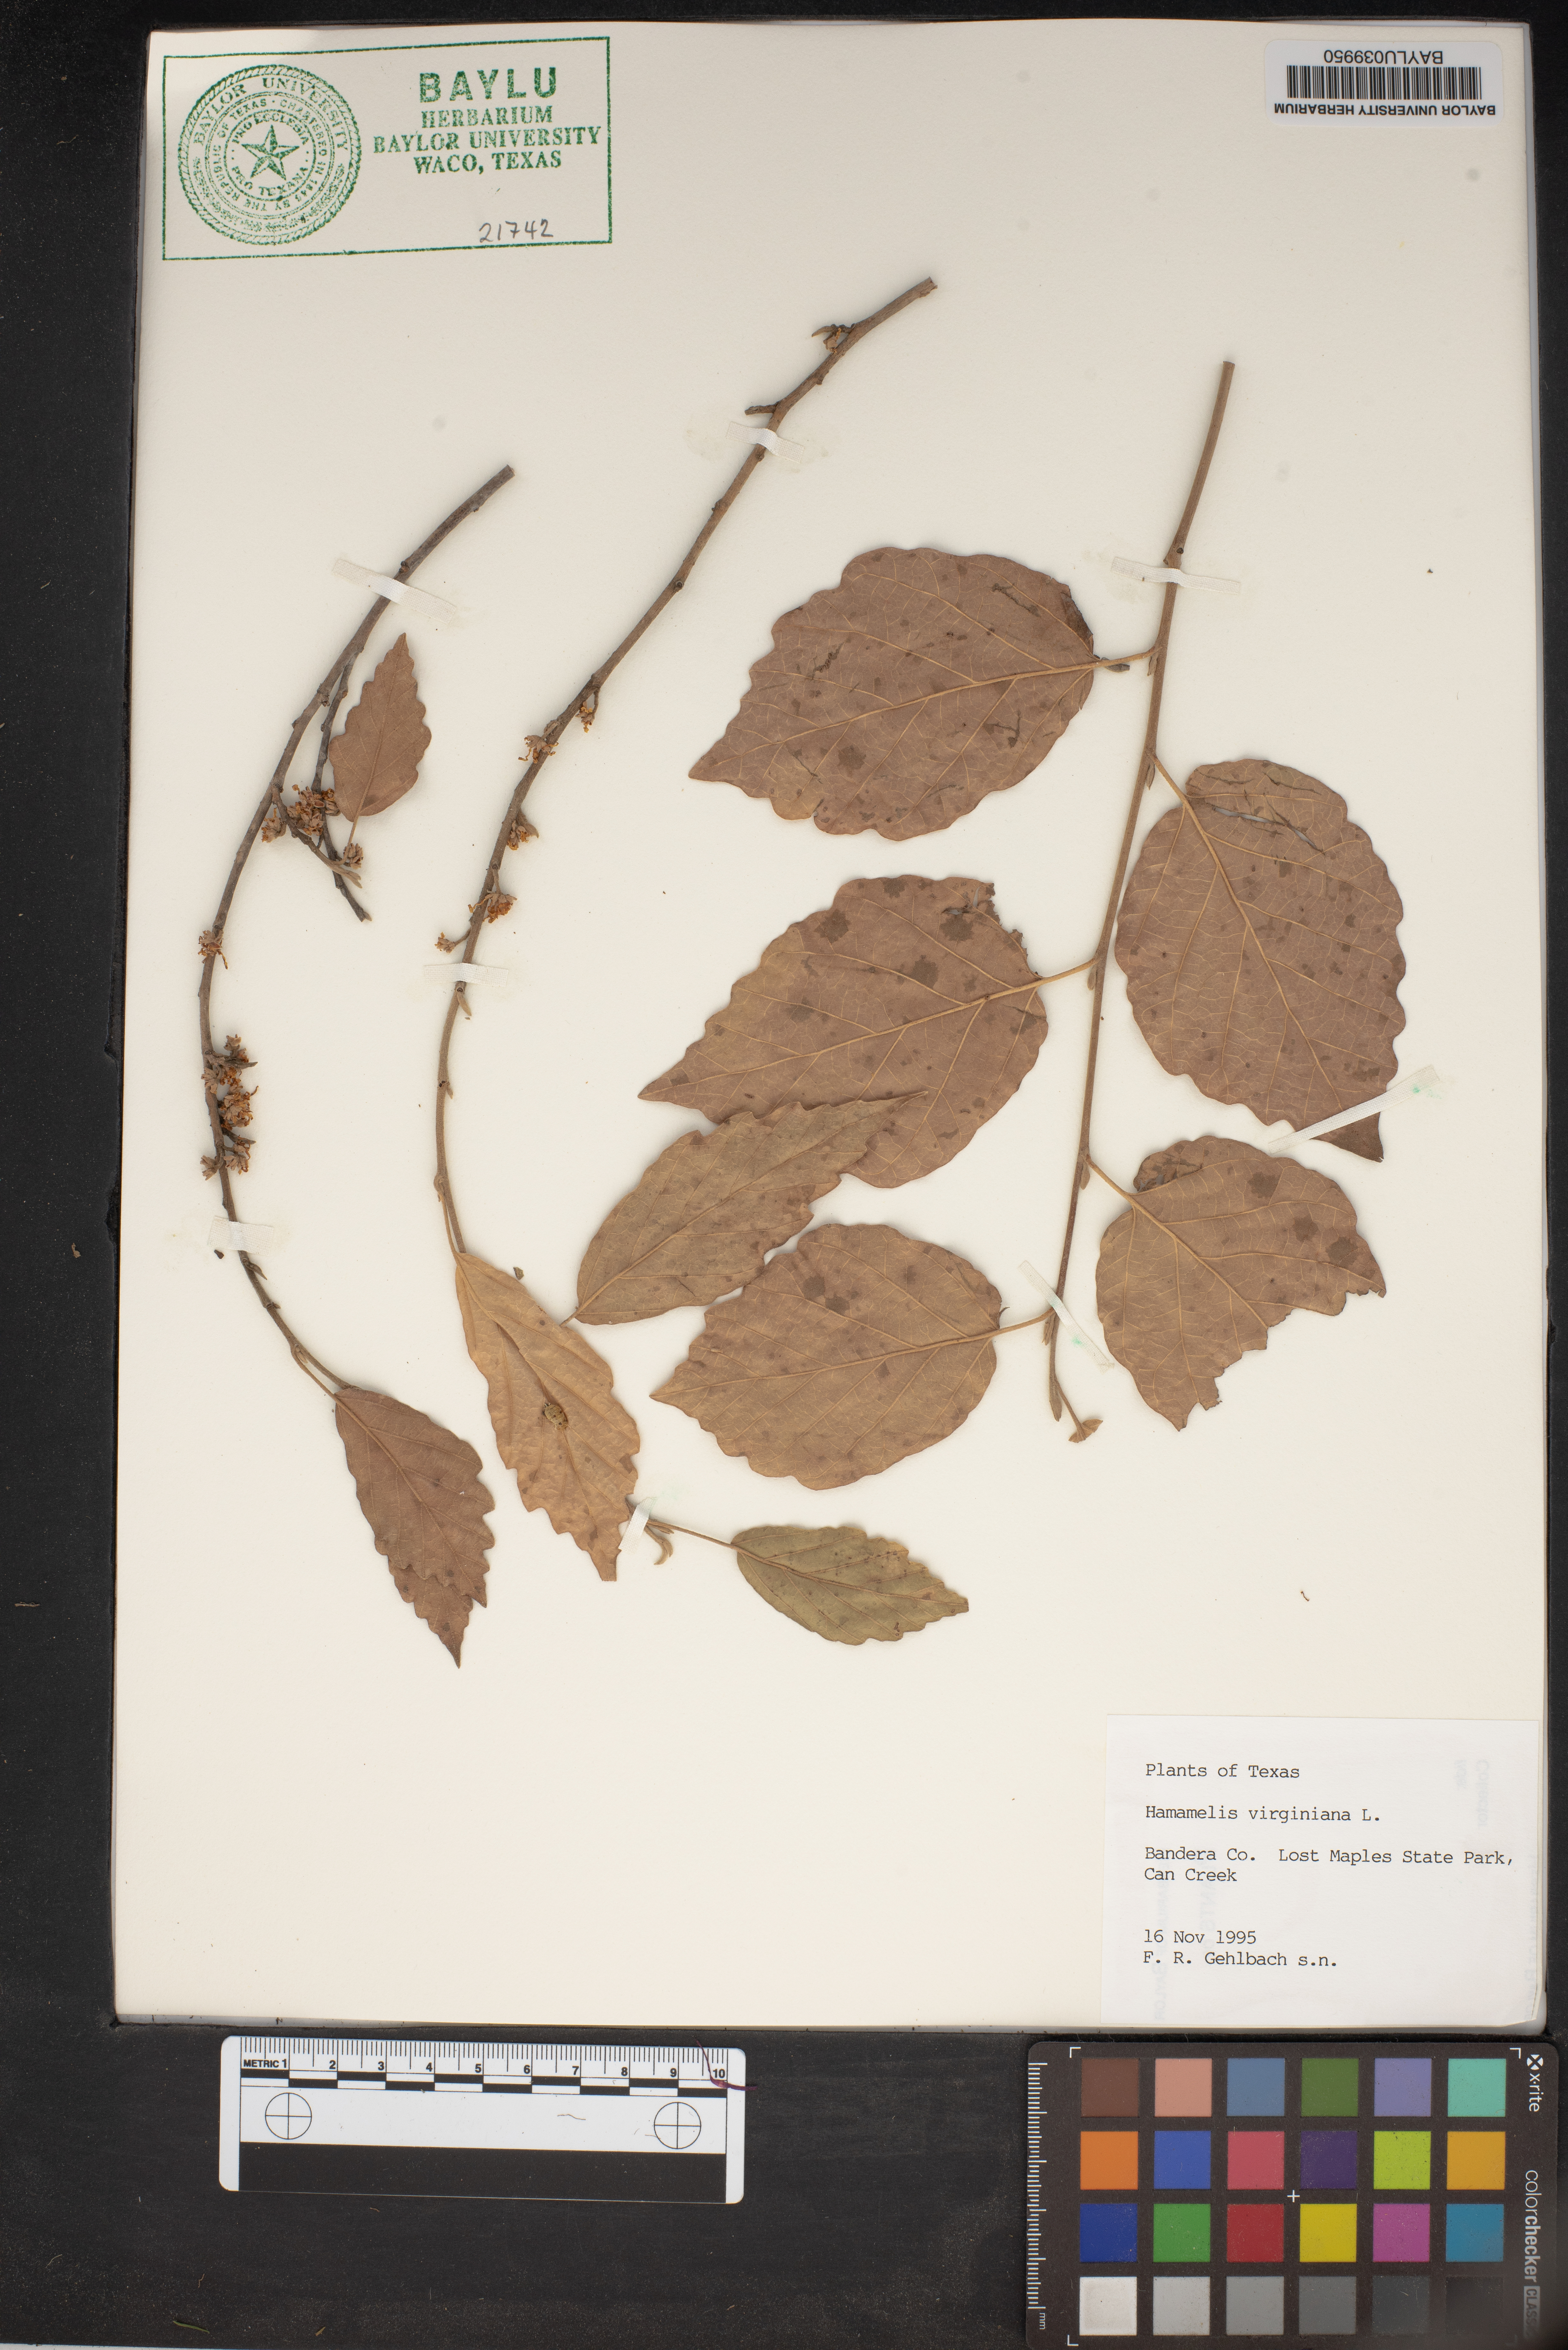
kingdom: Plantae
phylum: Tracheophyta
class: Magnoliopsida
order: Saxifragales
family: Hamamelidaceae
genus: Hamamelis
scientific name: Hamamelis virginiana
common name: Witch-hazel
